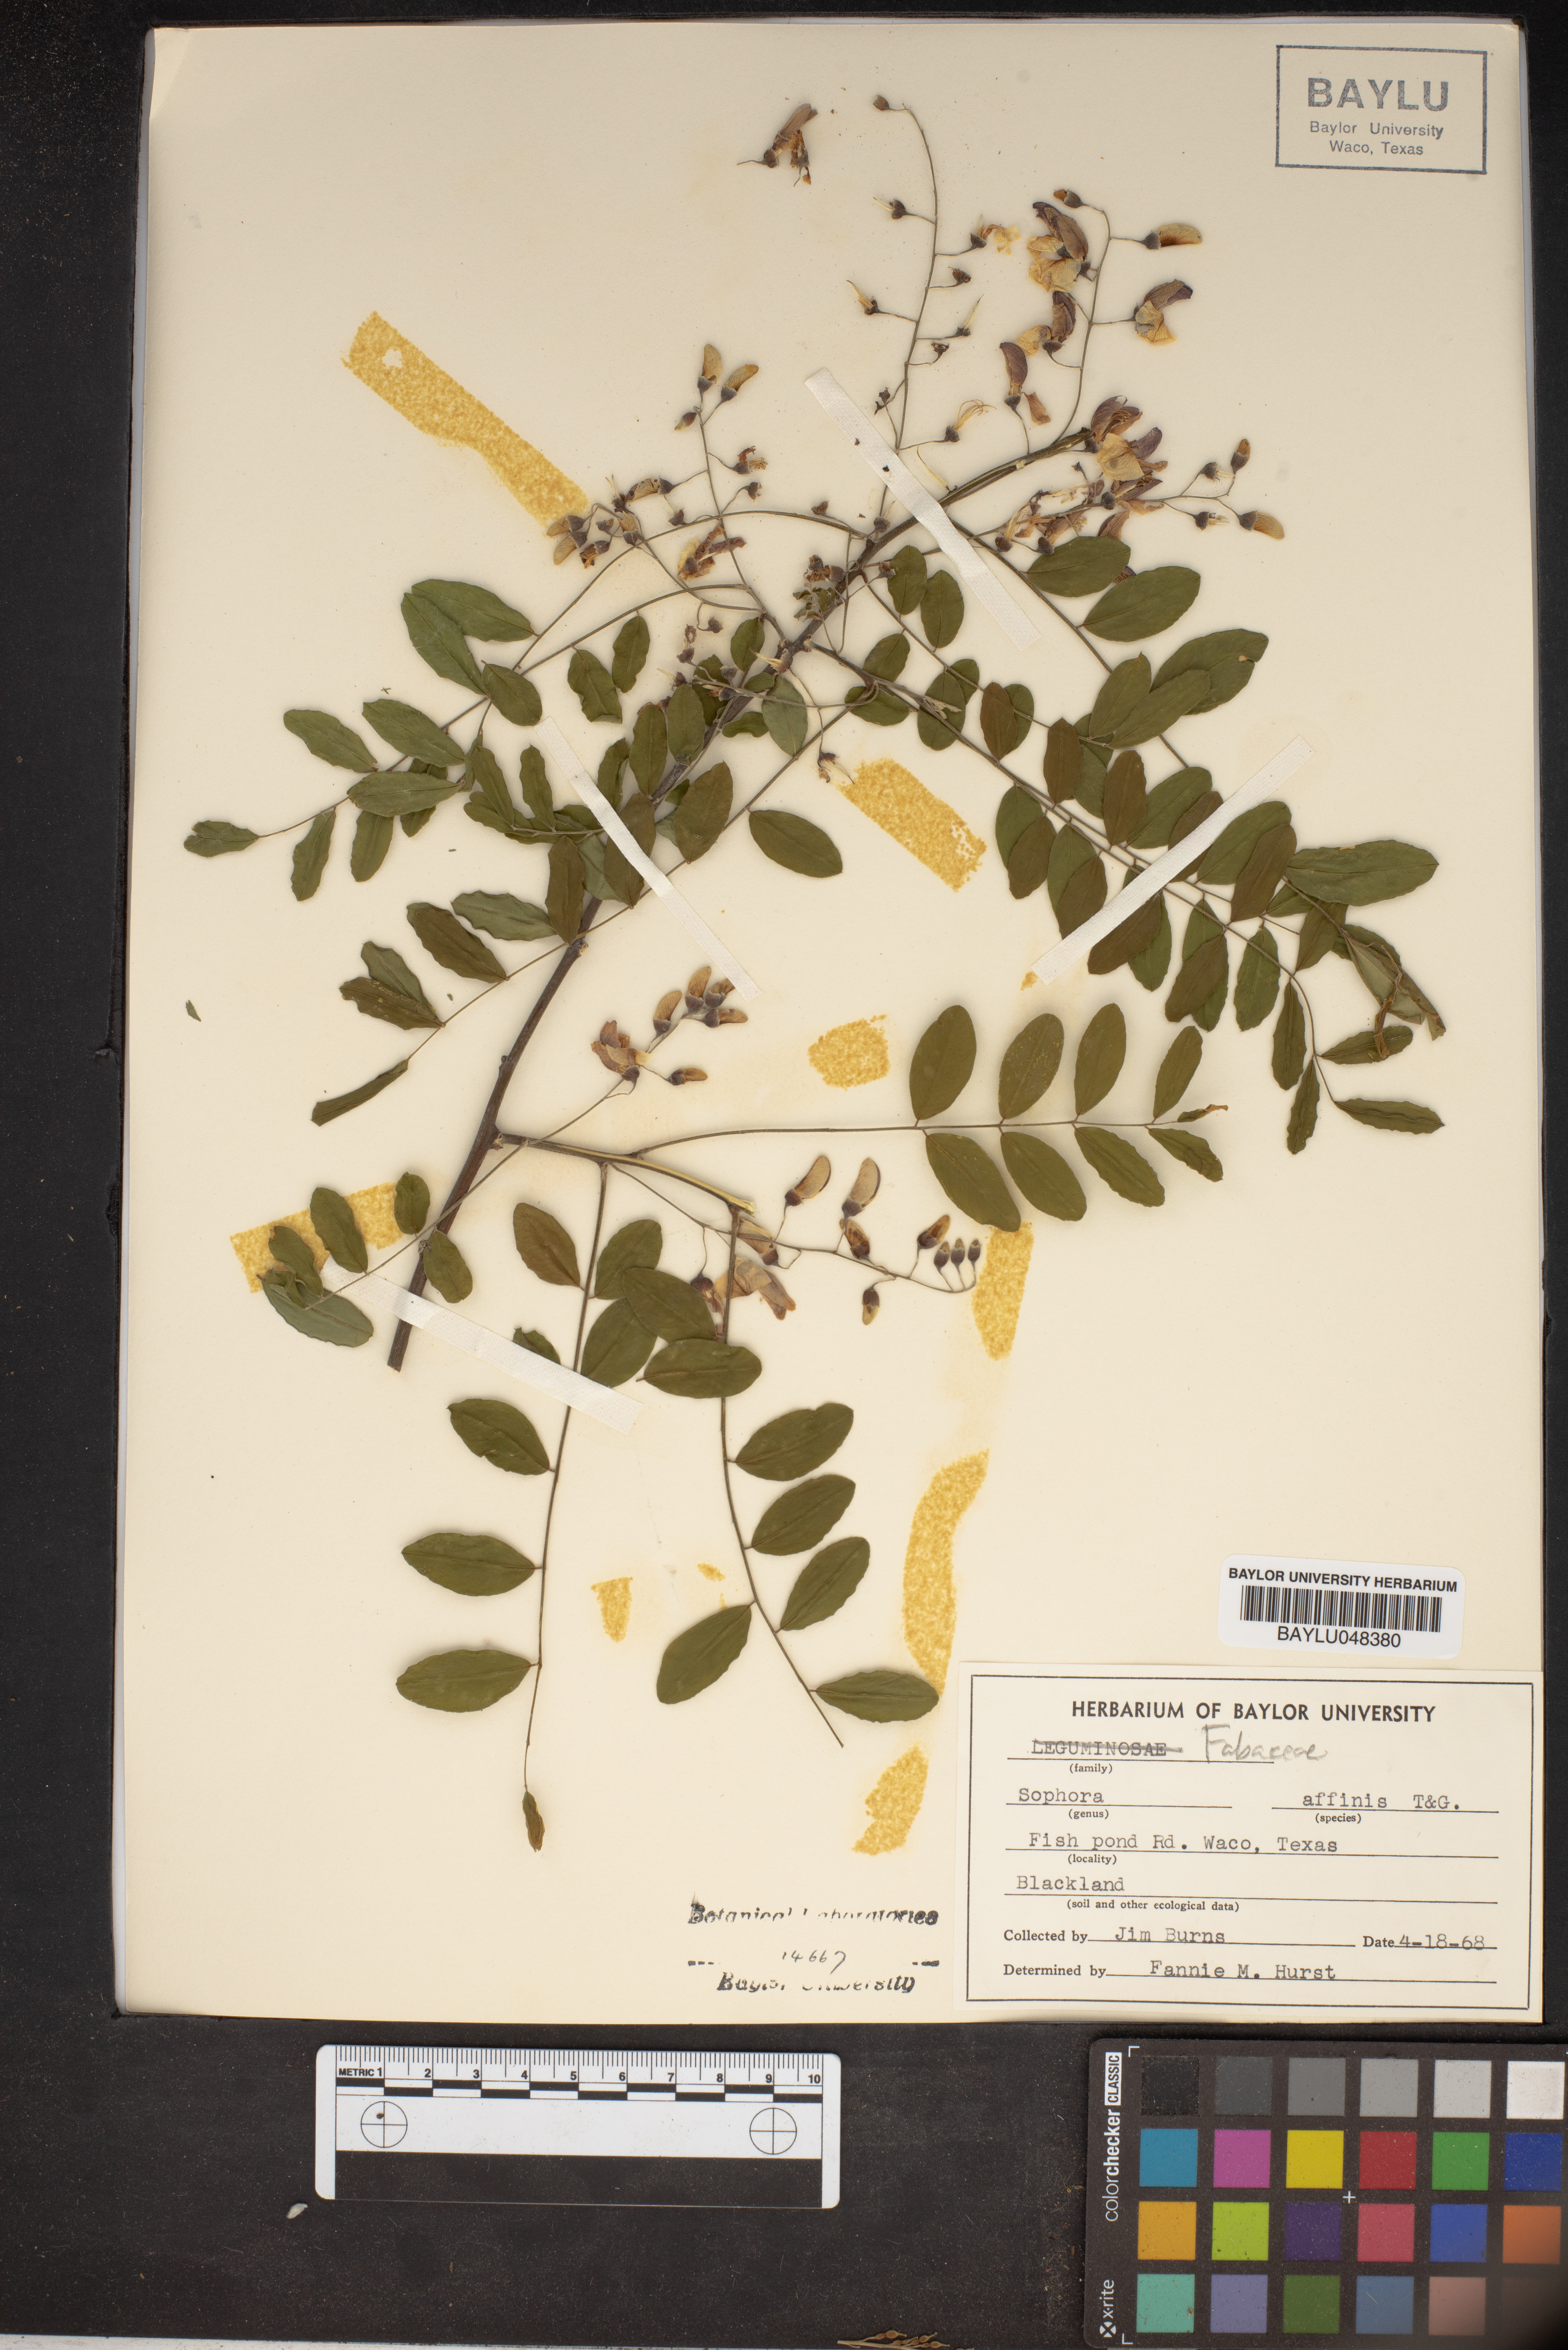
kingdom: Plantae
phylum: Tracheophyta
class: Magnoliopsida
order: Fabales
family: Fabaceae
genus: Styphnolobium
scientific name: Styphnolobium affine
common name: Texas sophora
